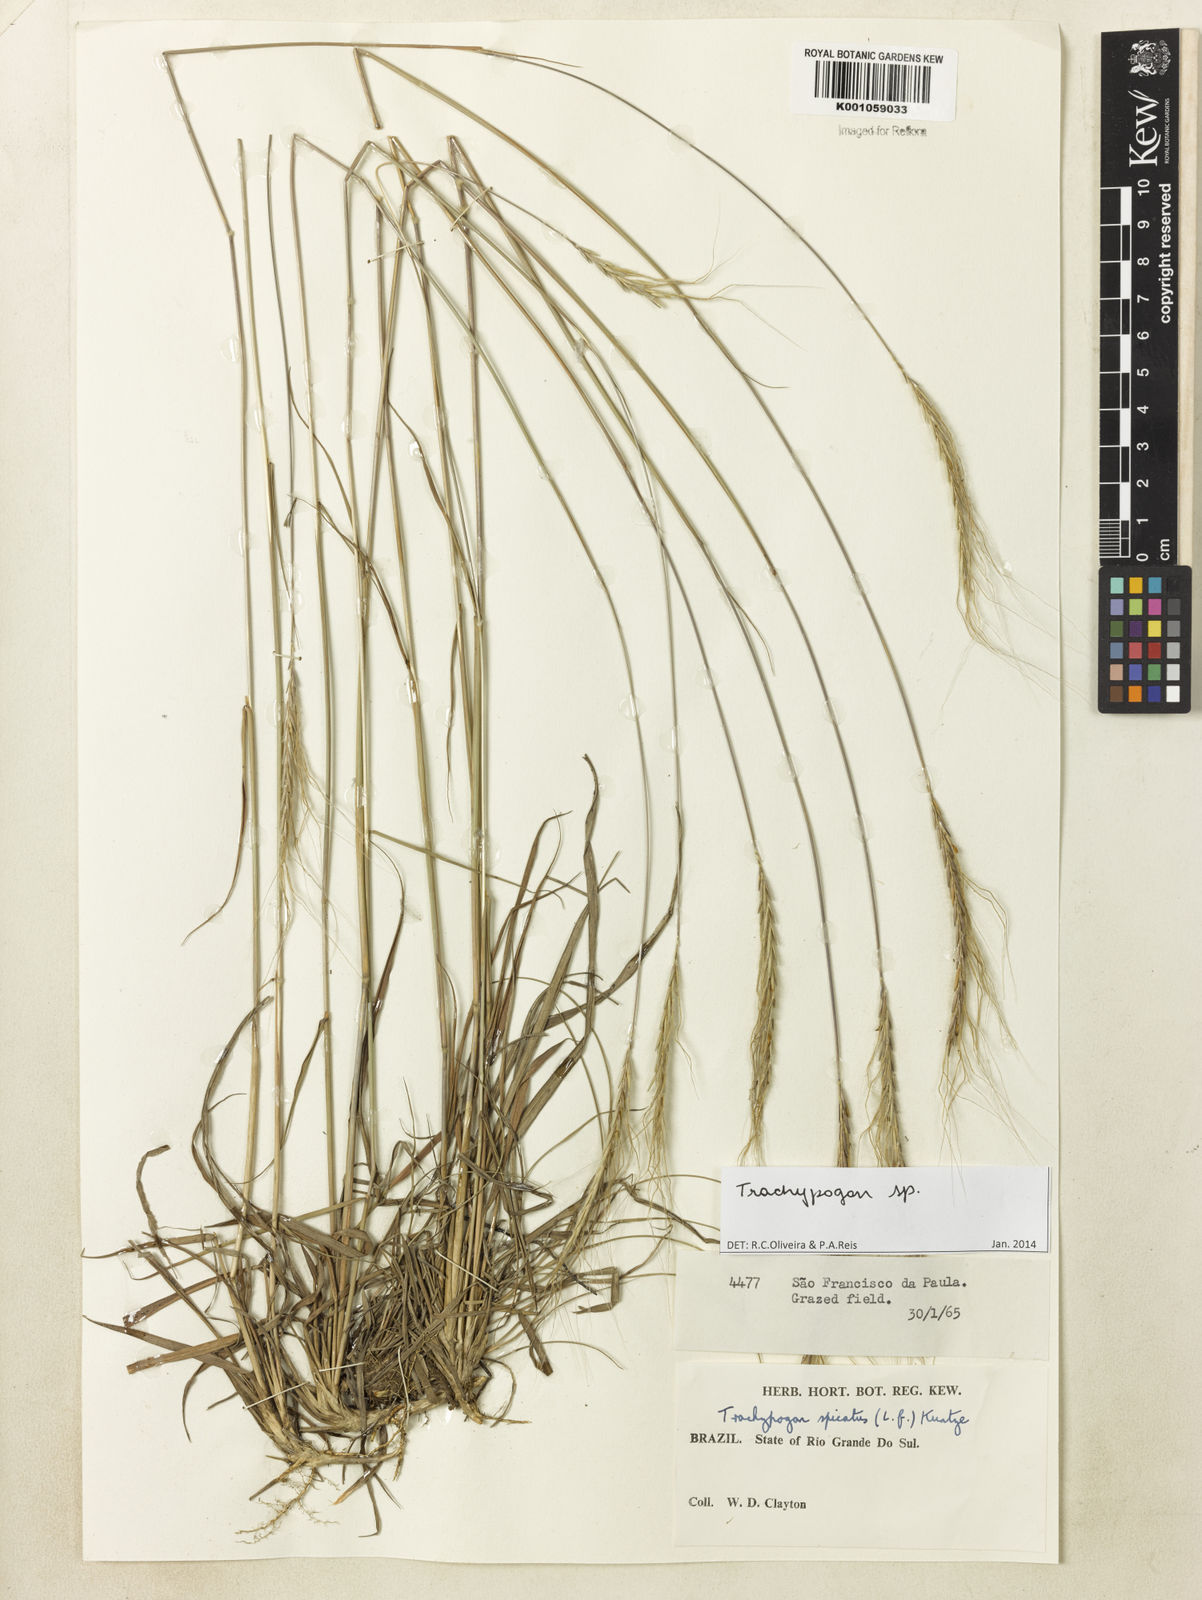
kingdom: Plantae
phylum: Tracheophyta
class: Liliopsida
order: Poales
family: Poaceae
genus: Trachypogon
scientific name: Trachypogon
